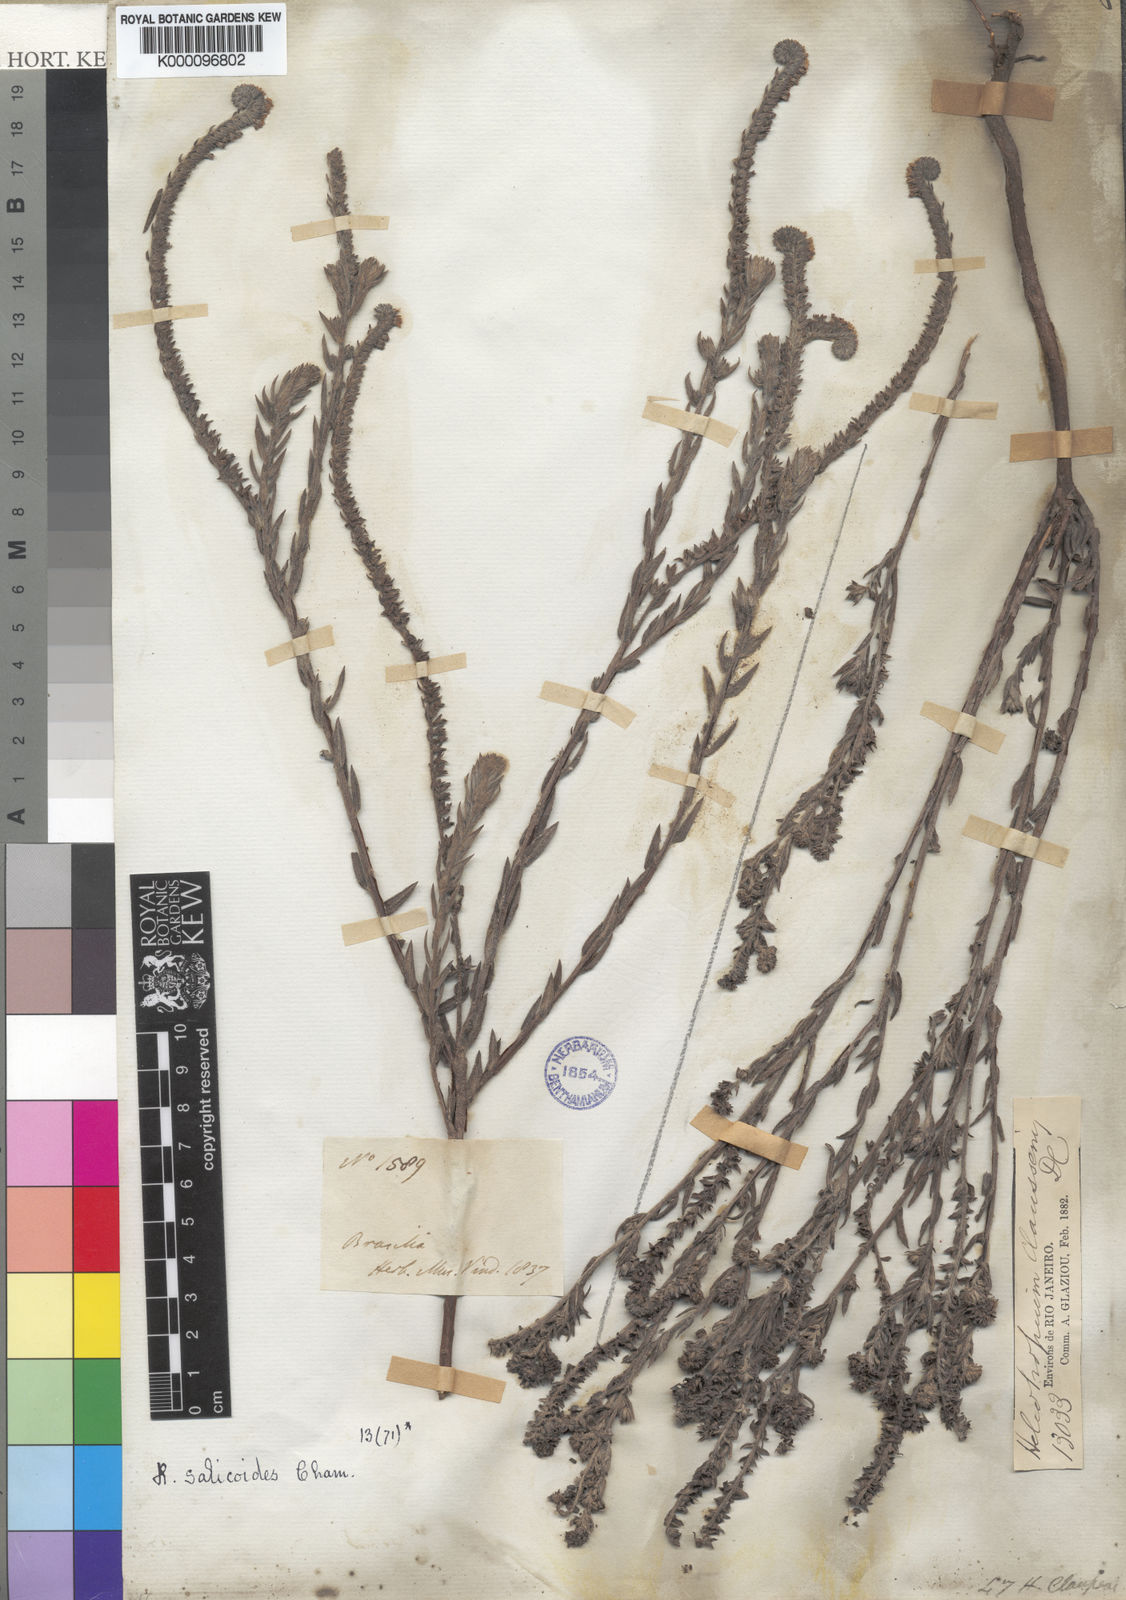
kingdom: Plantae
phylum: Tracheophyta
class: Magnoliopsida
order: Boraginales
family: Heliotropiaceae
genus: Heliotropium
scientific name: Heliotropium
